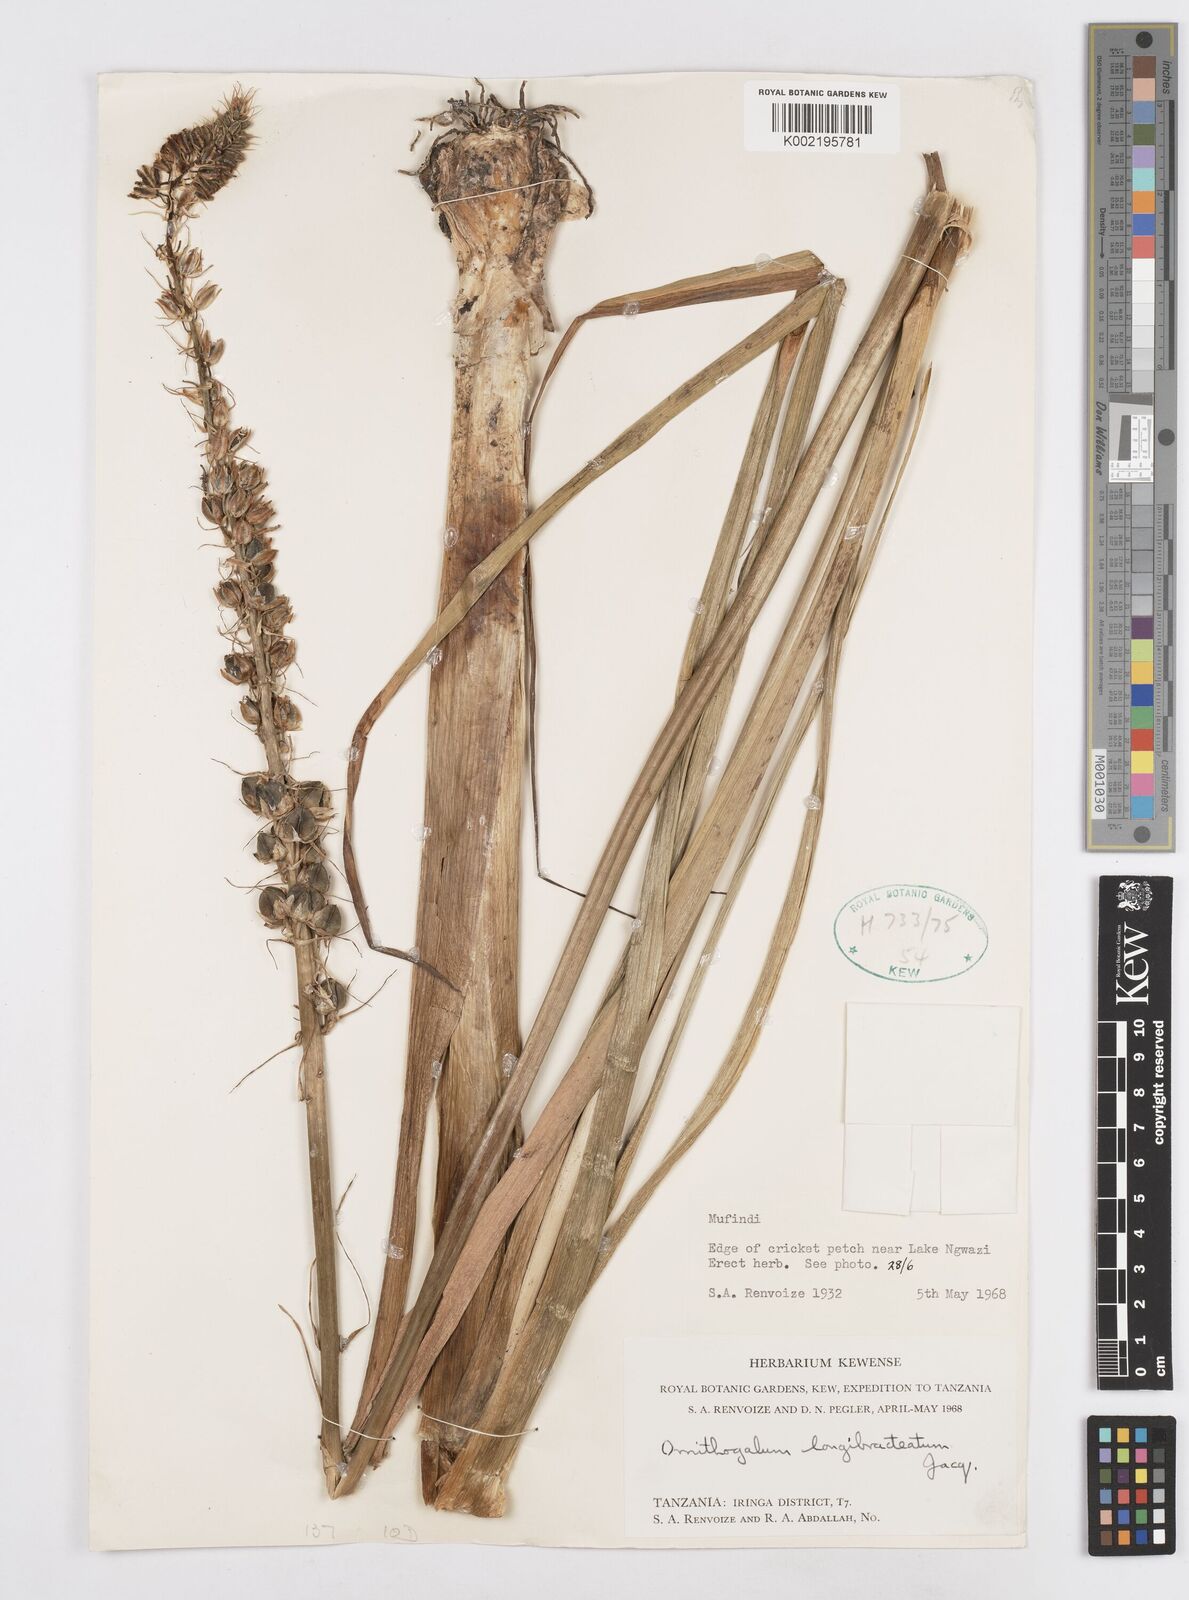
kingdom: Plantae
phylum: Tracheophyta
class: Liliopsida
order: Asparagales
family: Asparagaceae
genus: Ornithogalum
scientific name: Ornithogalum
